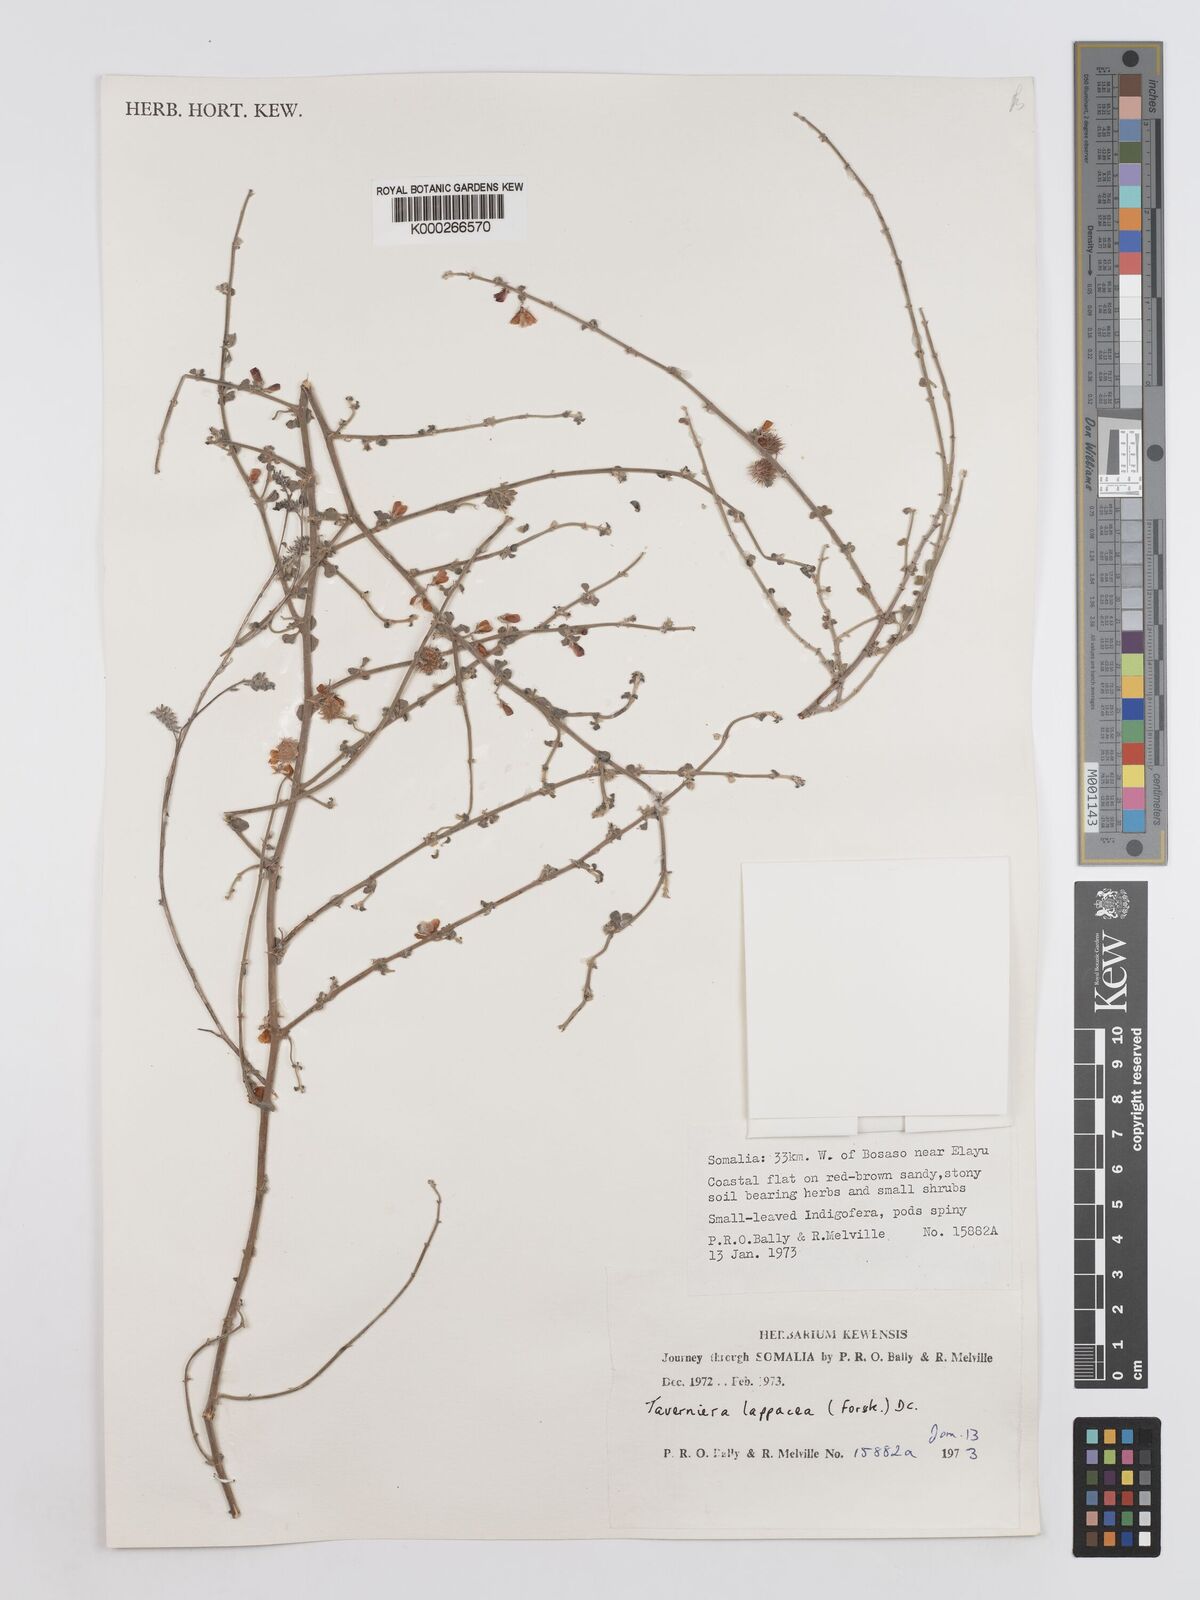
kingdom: Plantae
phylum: Tracheophyta
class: Magnoliopsida
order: Fabales
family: Fabaceae
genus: Taverniera
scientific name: Taverniera lappacea
